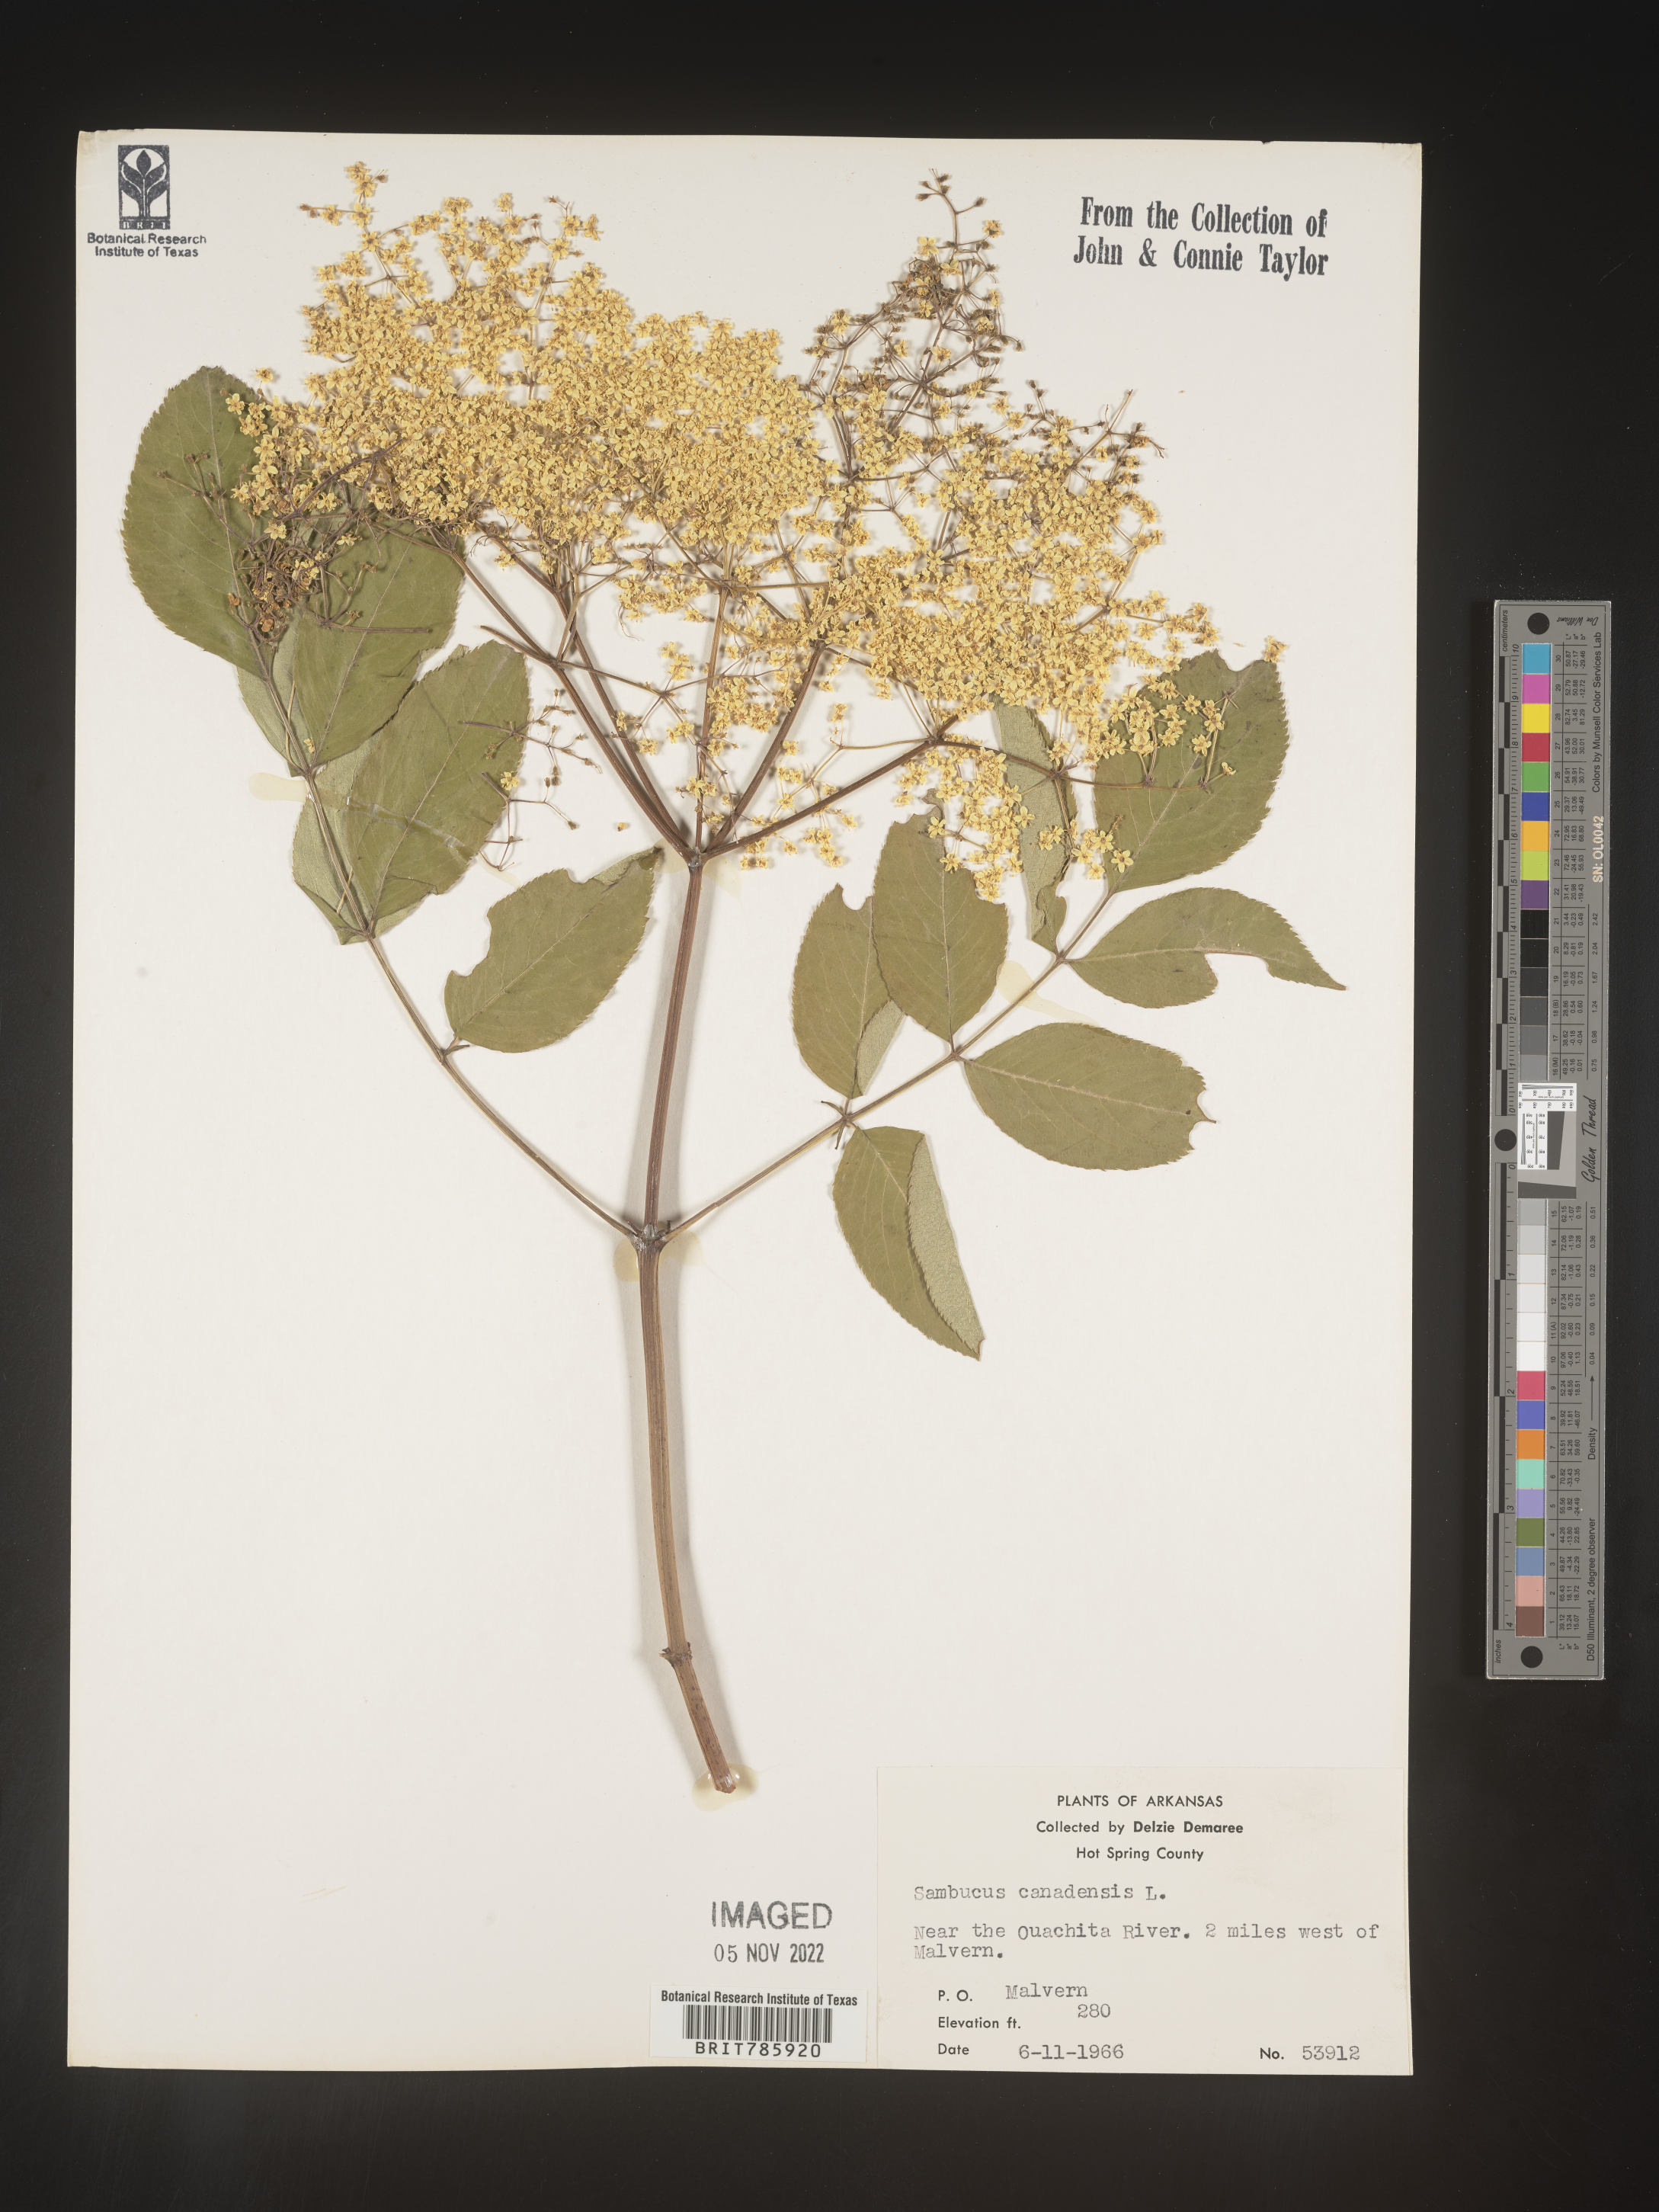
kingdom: Plantae
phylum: Tracheophyta
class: Magnoliopsida
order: Dipsacales
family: Viburnaceae
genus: Sambucus
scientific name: Sambucus nigra
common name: Elder
